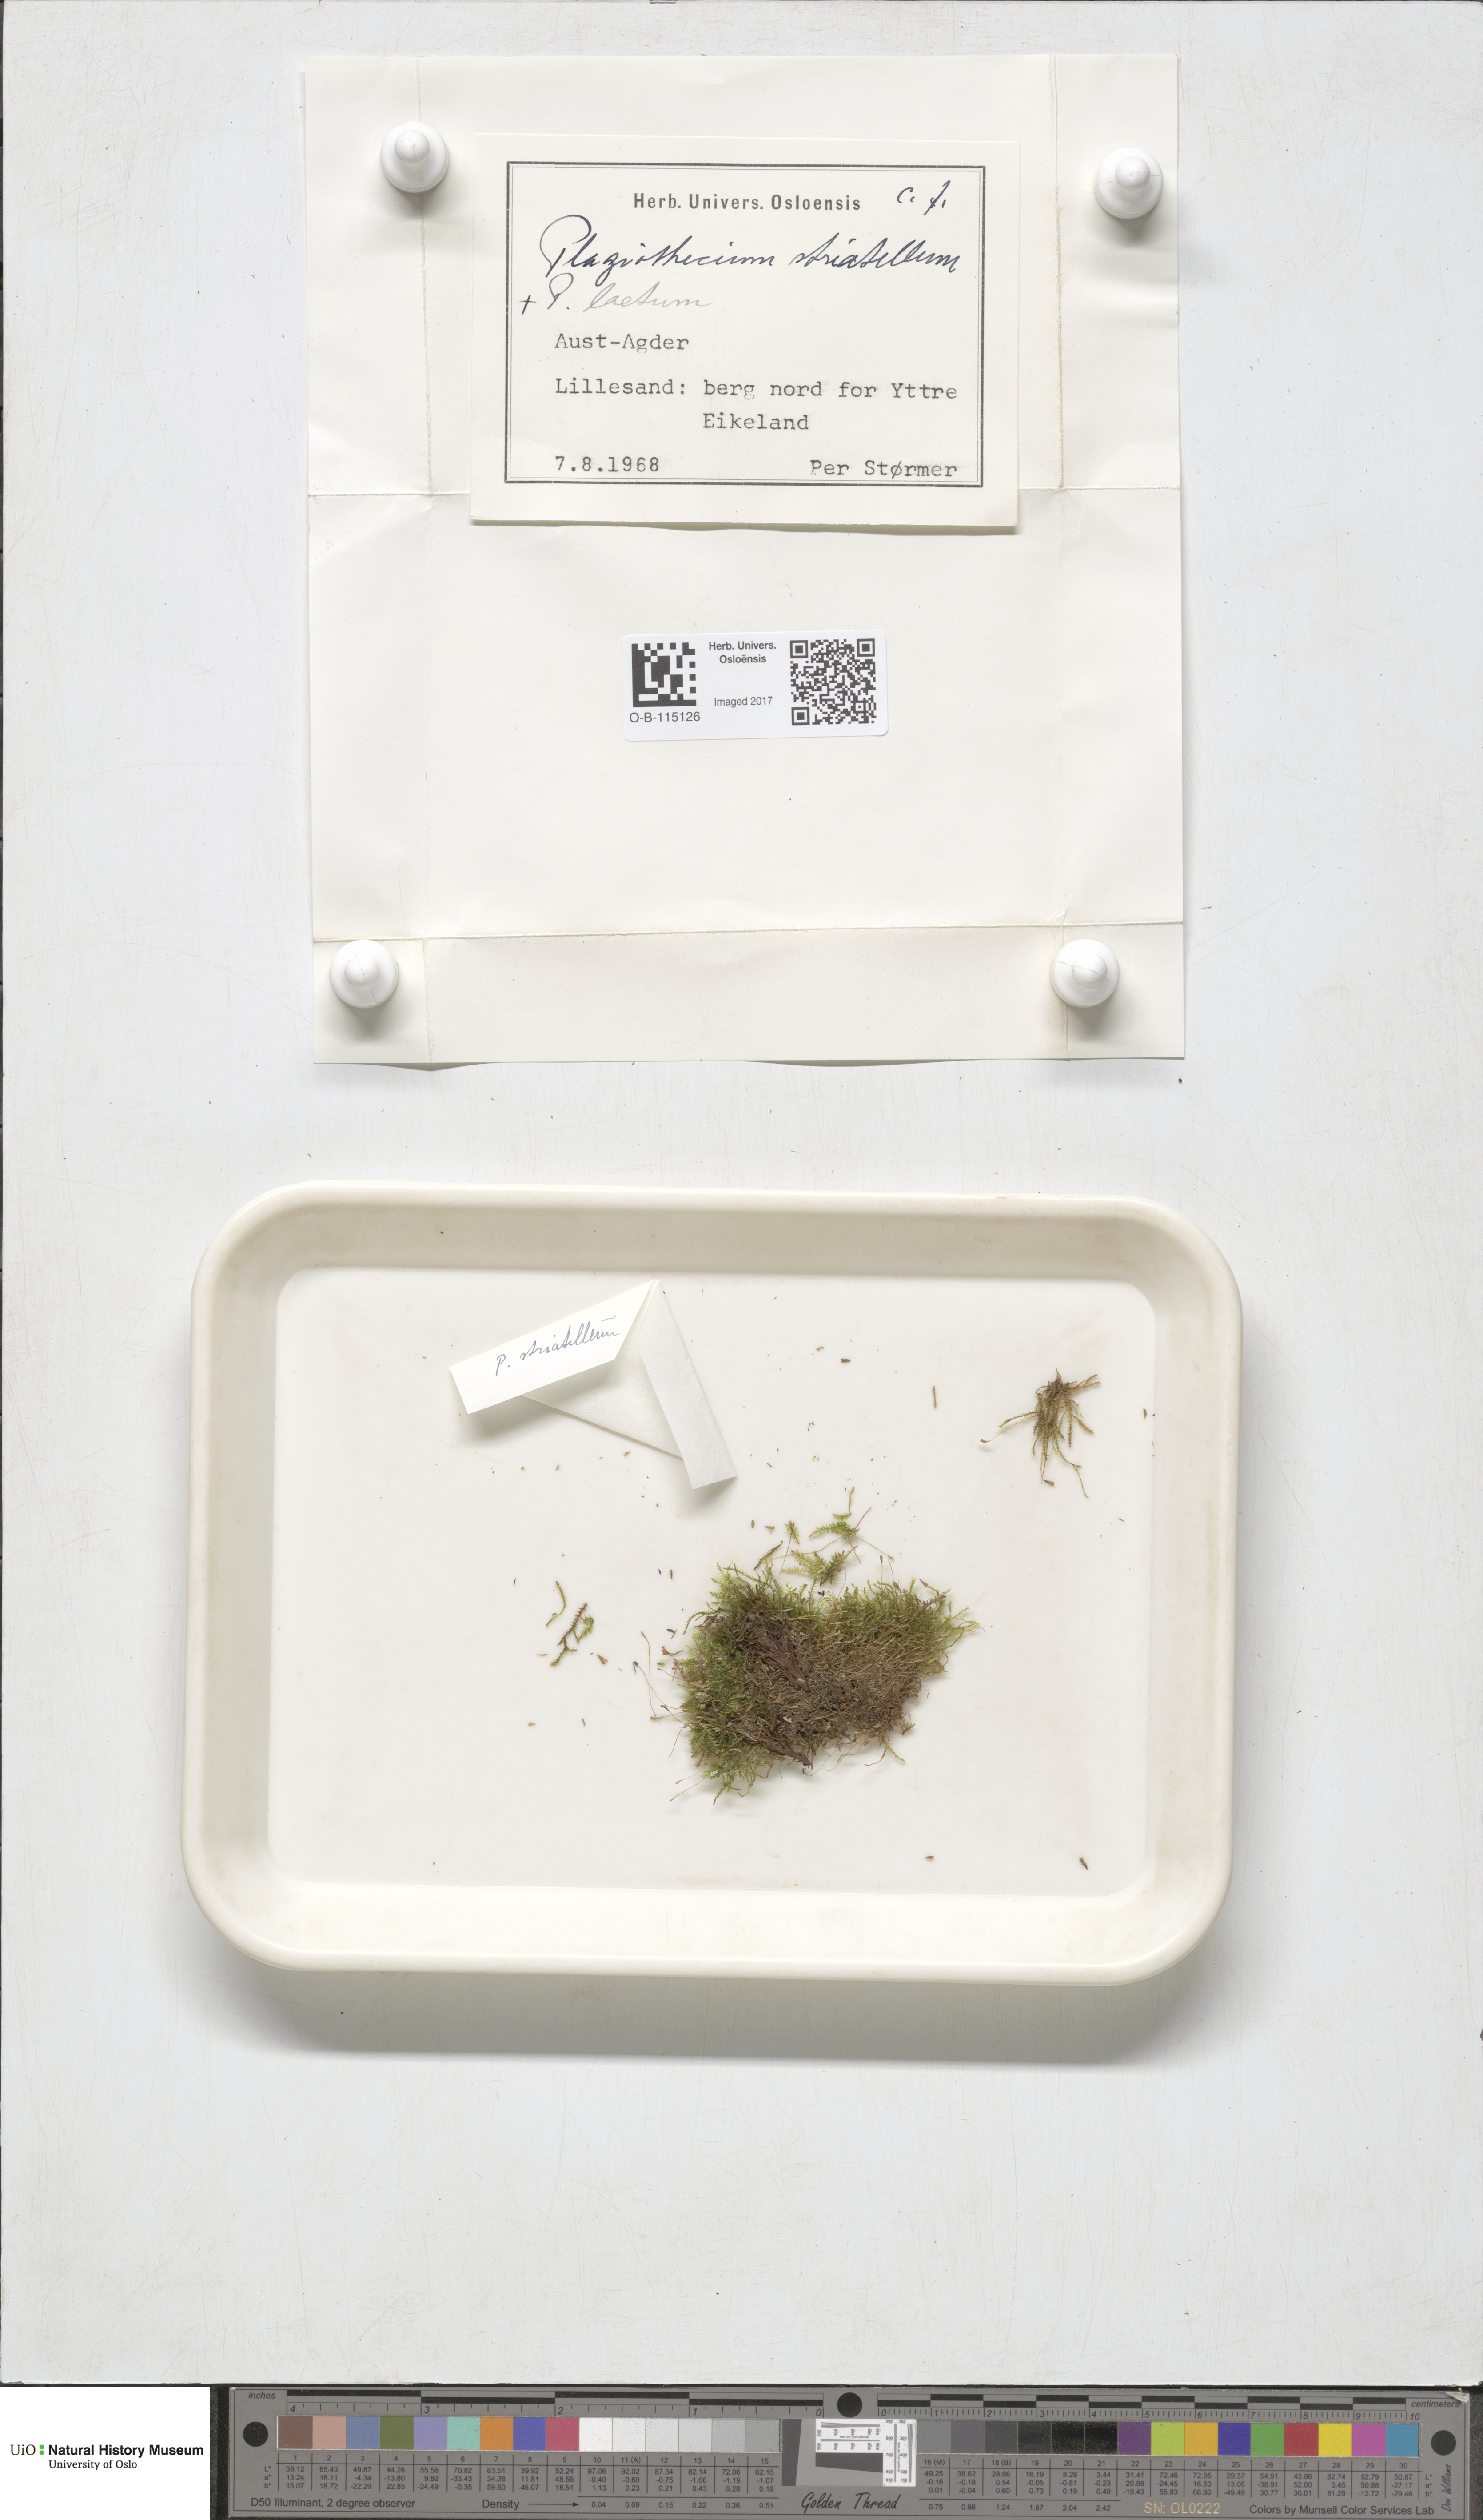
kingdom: Plantae
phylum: Bryophyta
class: Bryopsida
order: Hypnales
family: Plagiotheciaceae
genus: Herzogiella
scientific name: Herzogiella striatella
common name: Muhlenbeck's feather-moss
